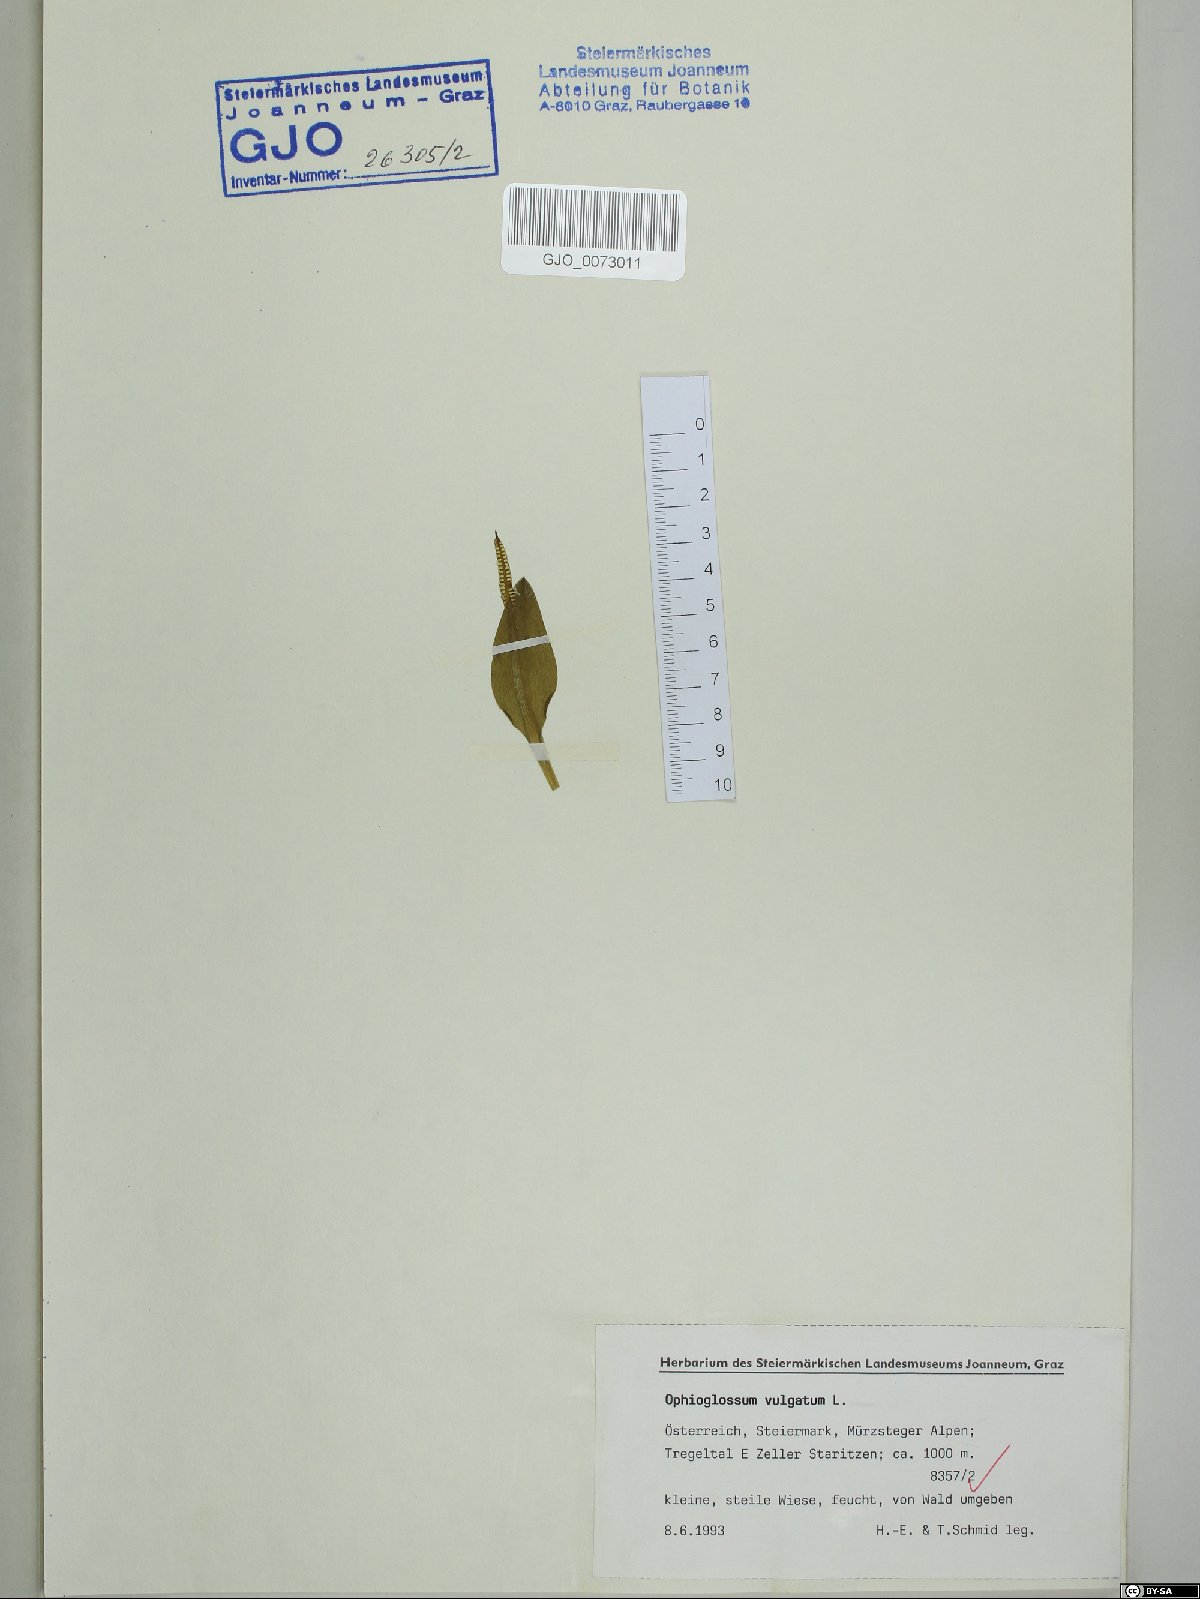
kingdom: Plantae
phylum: Tracheophyta
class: Polypodiopsida
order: Ophioglossales
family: Ophioglossaceae
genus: Ophioglossum
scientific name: Ophioglossum vulgatum
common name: Adder's-tongue
